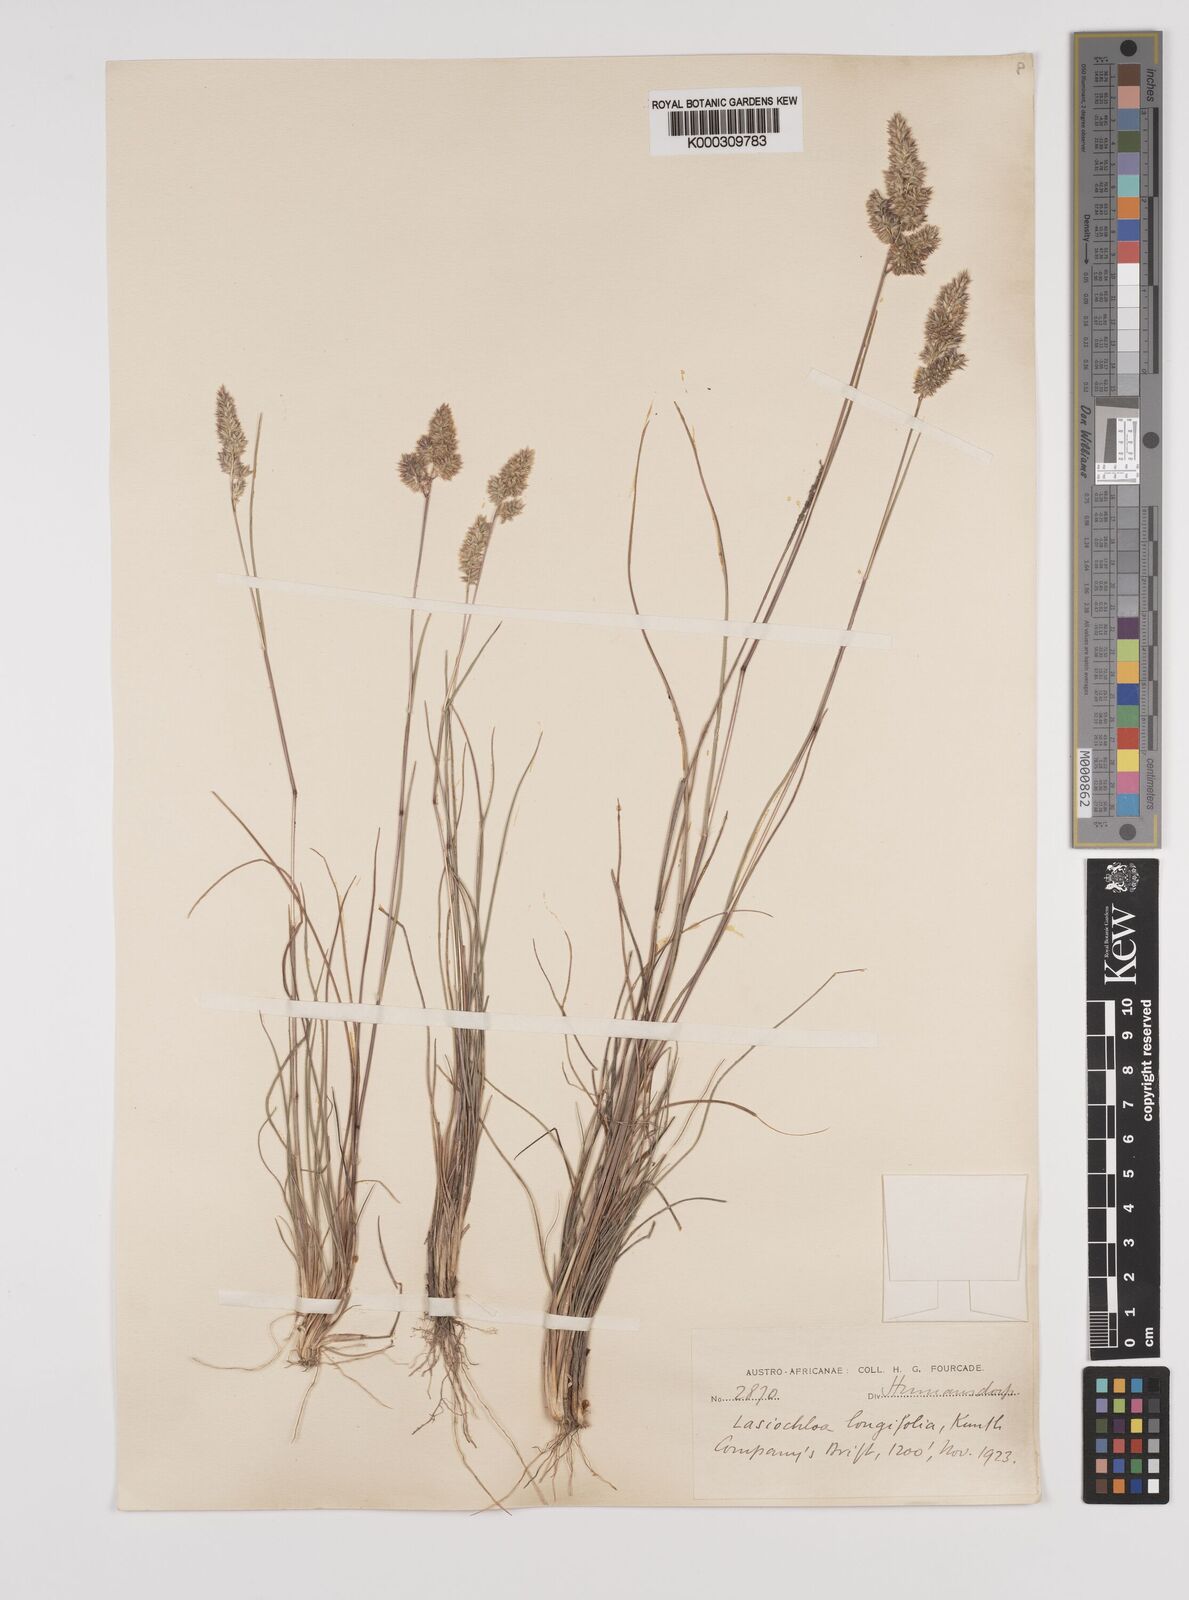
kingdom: Plantae
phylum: Tracheophyta
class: Liliopsida
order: Poales
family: Poaceae
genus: Tribolium
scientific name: Tribolium hispidum
